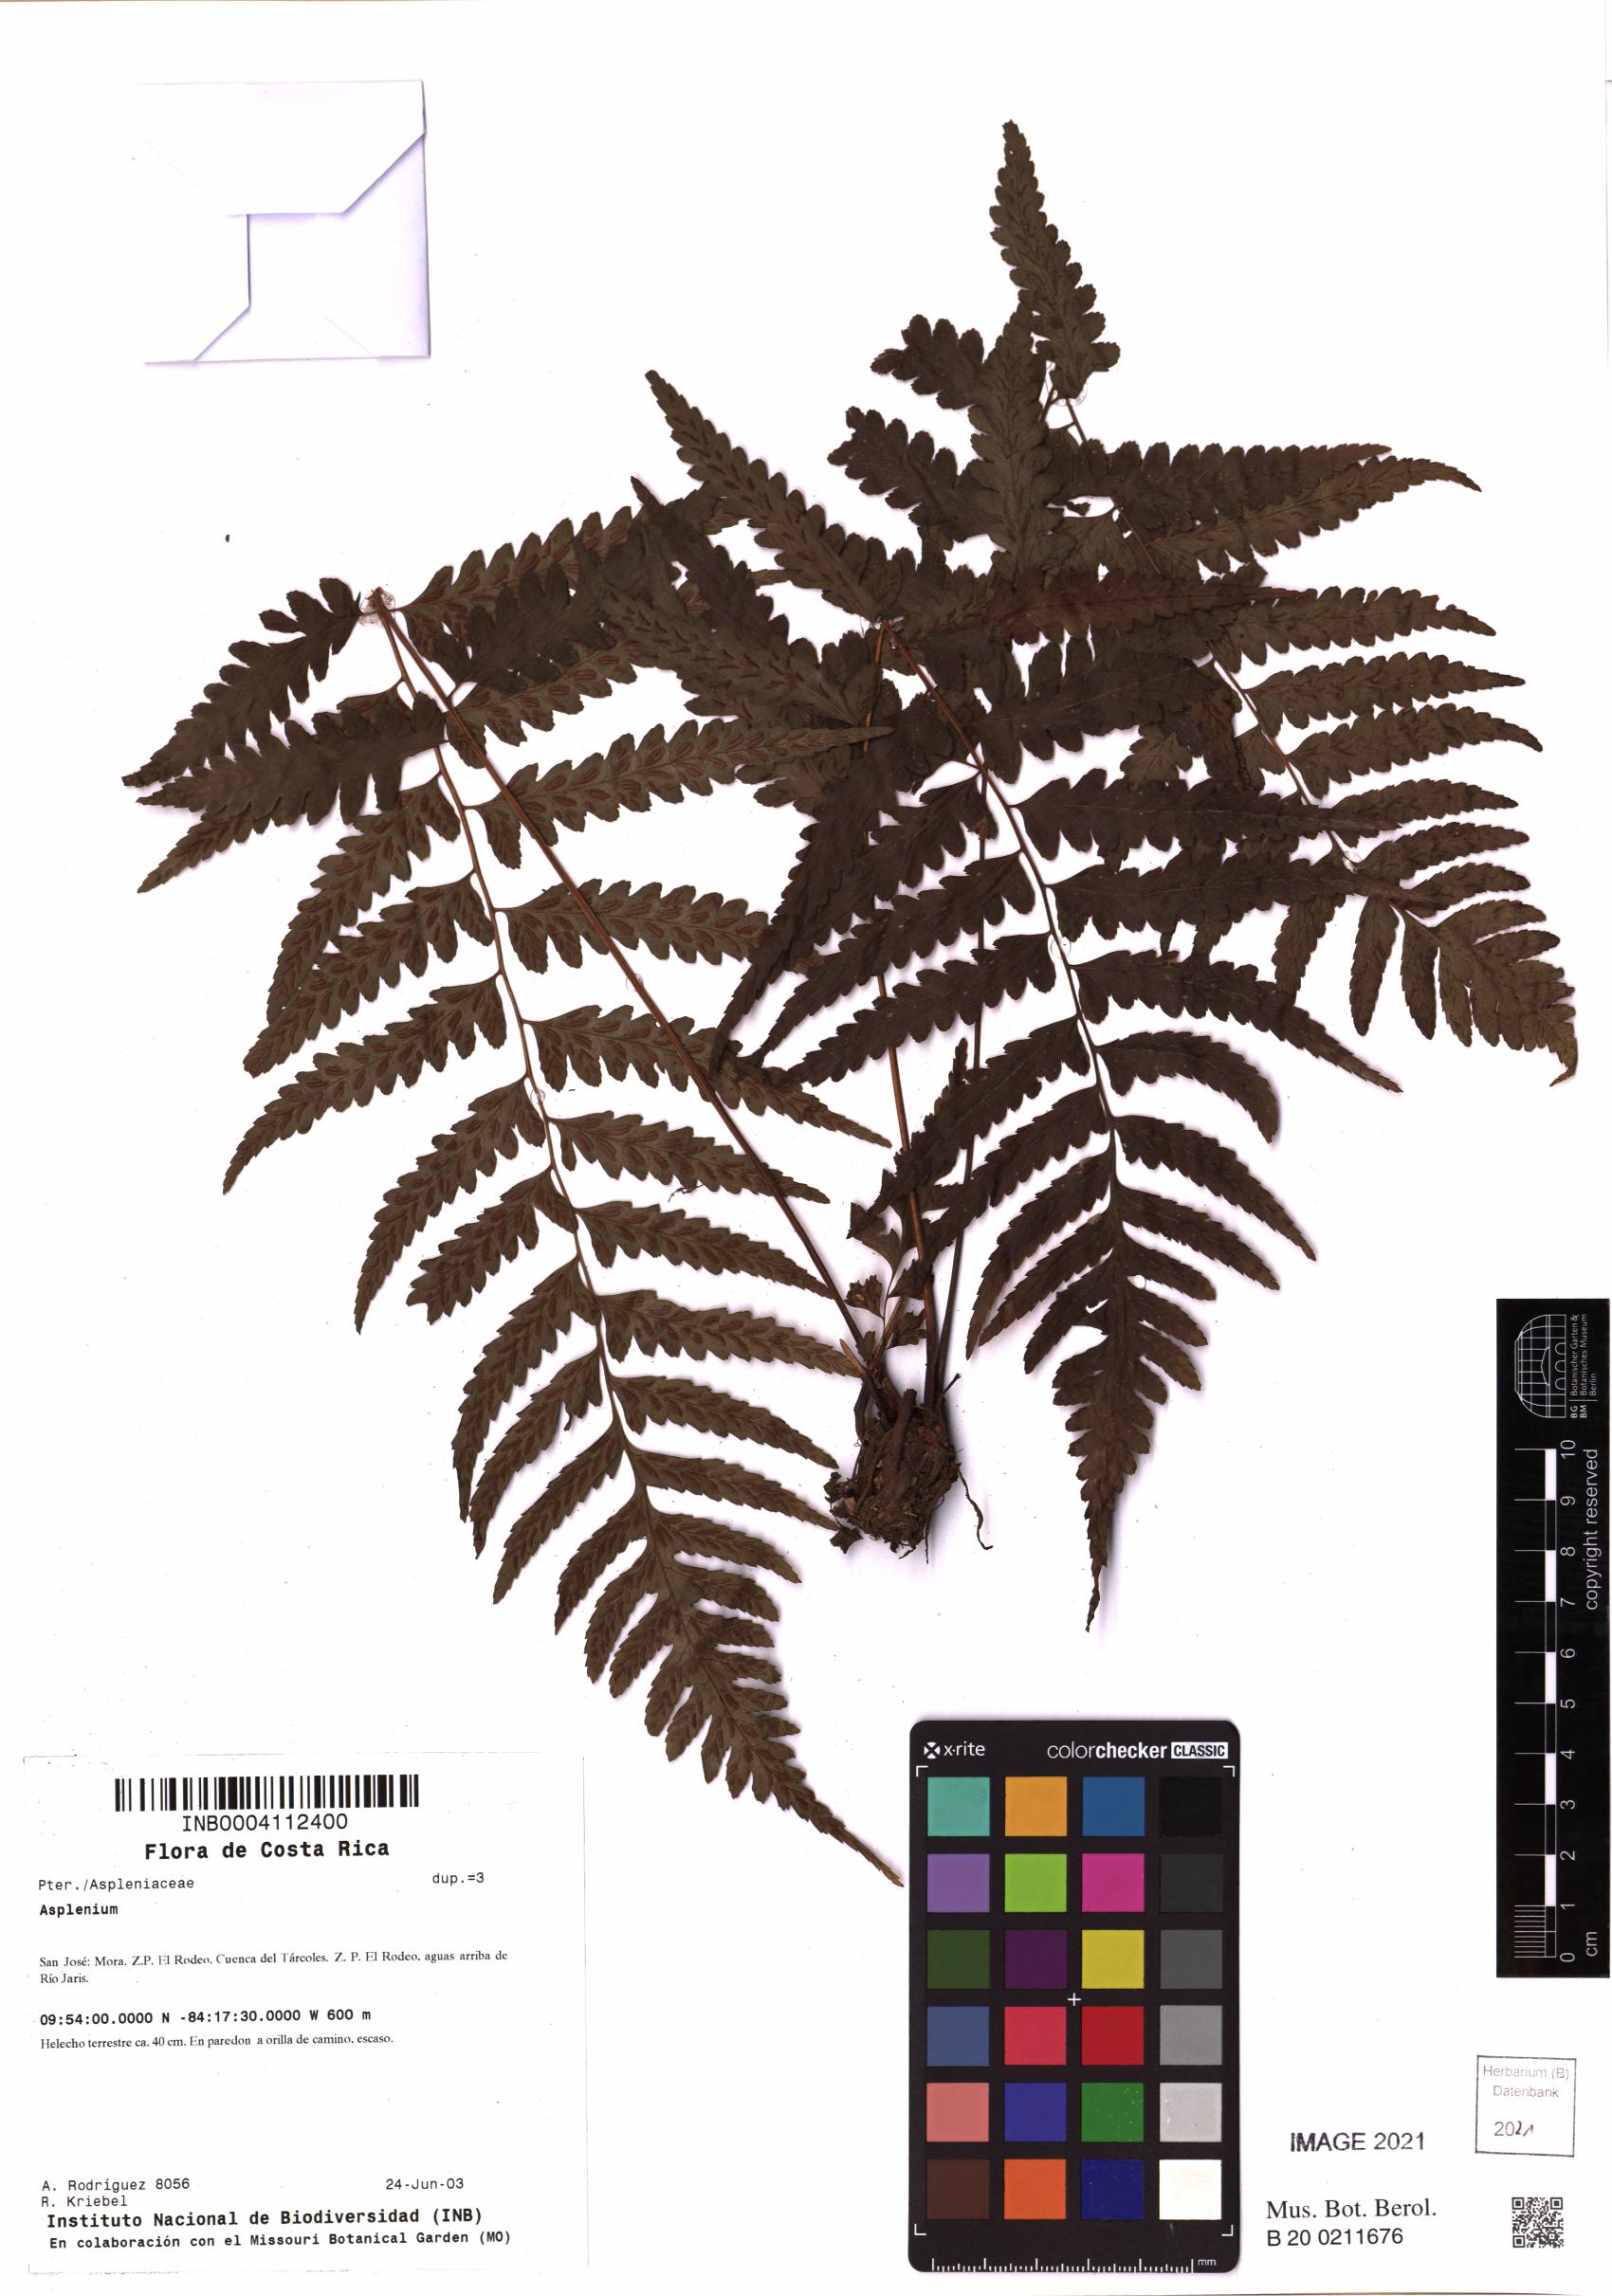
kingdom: Plantae
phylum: Tracheophyta
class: Polypodiopsida
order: Polypodiales
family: Aspleniaceae
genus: Asplenium
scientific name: Asplenium
